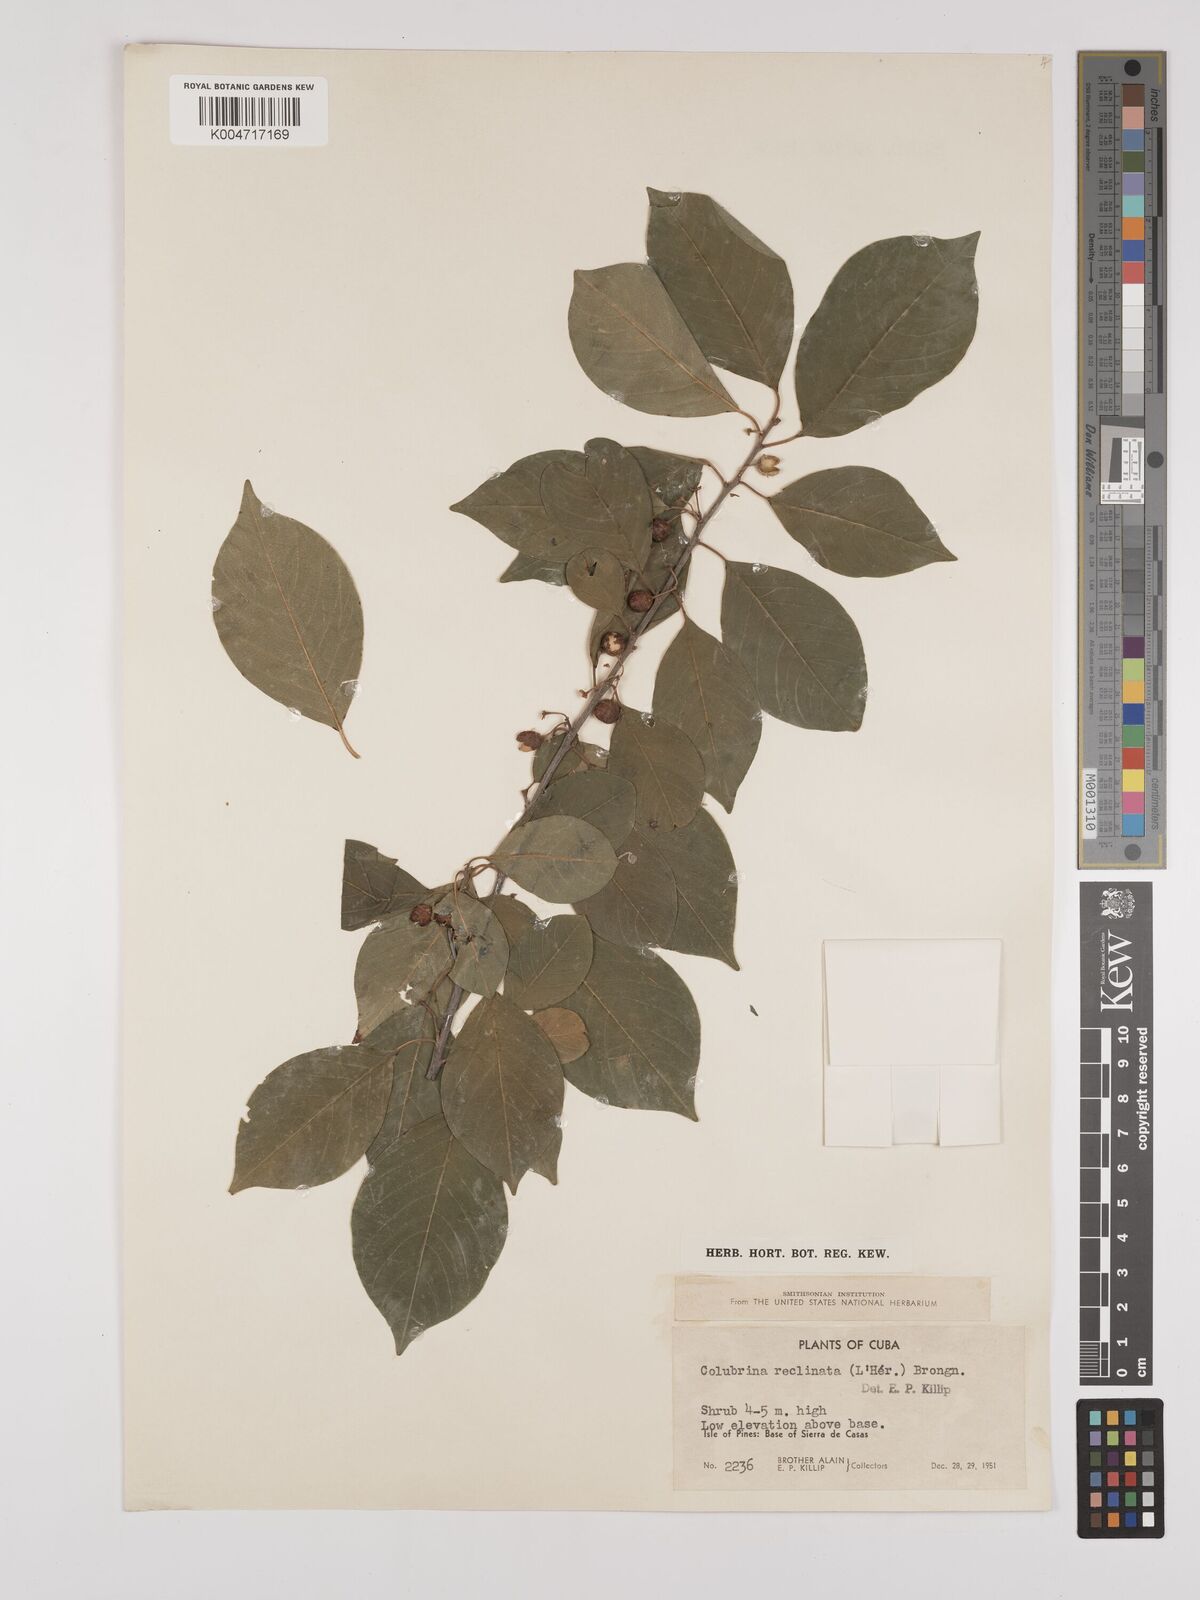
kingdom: Plantae
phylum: Tracheophyta
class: Magnoliopsida
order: Rosales
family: Rhamnaceae
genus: Colubrina
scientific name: Colubrina elliptica
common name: Soldierwood
